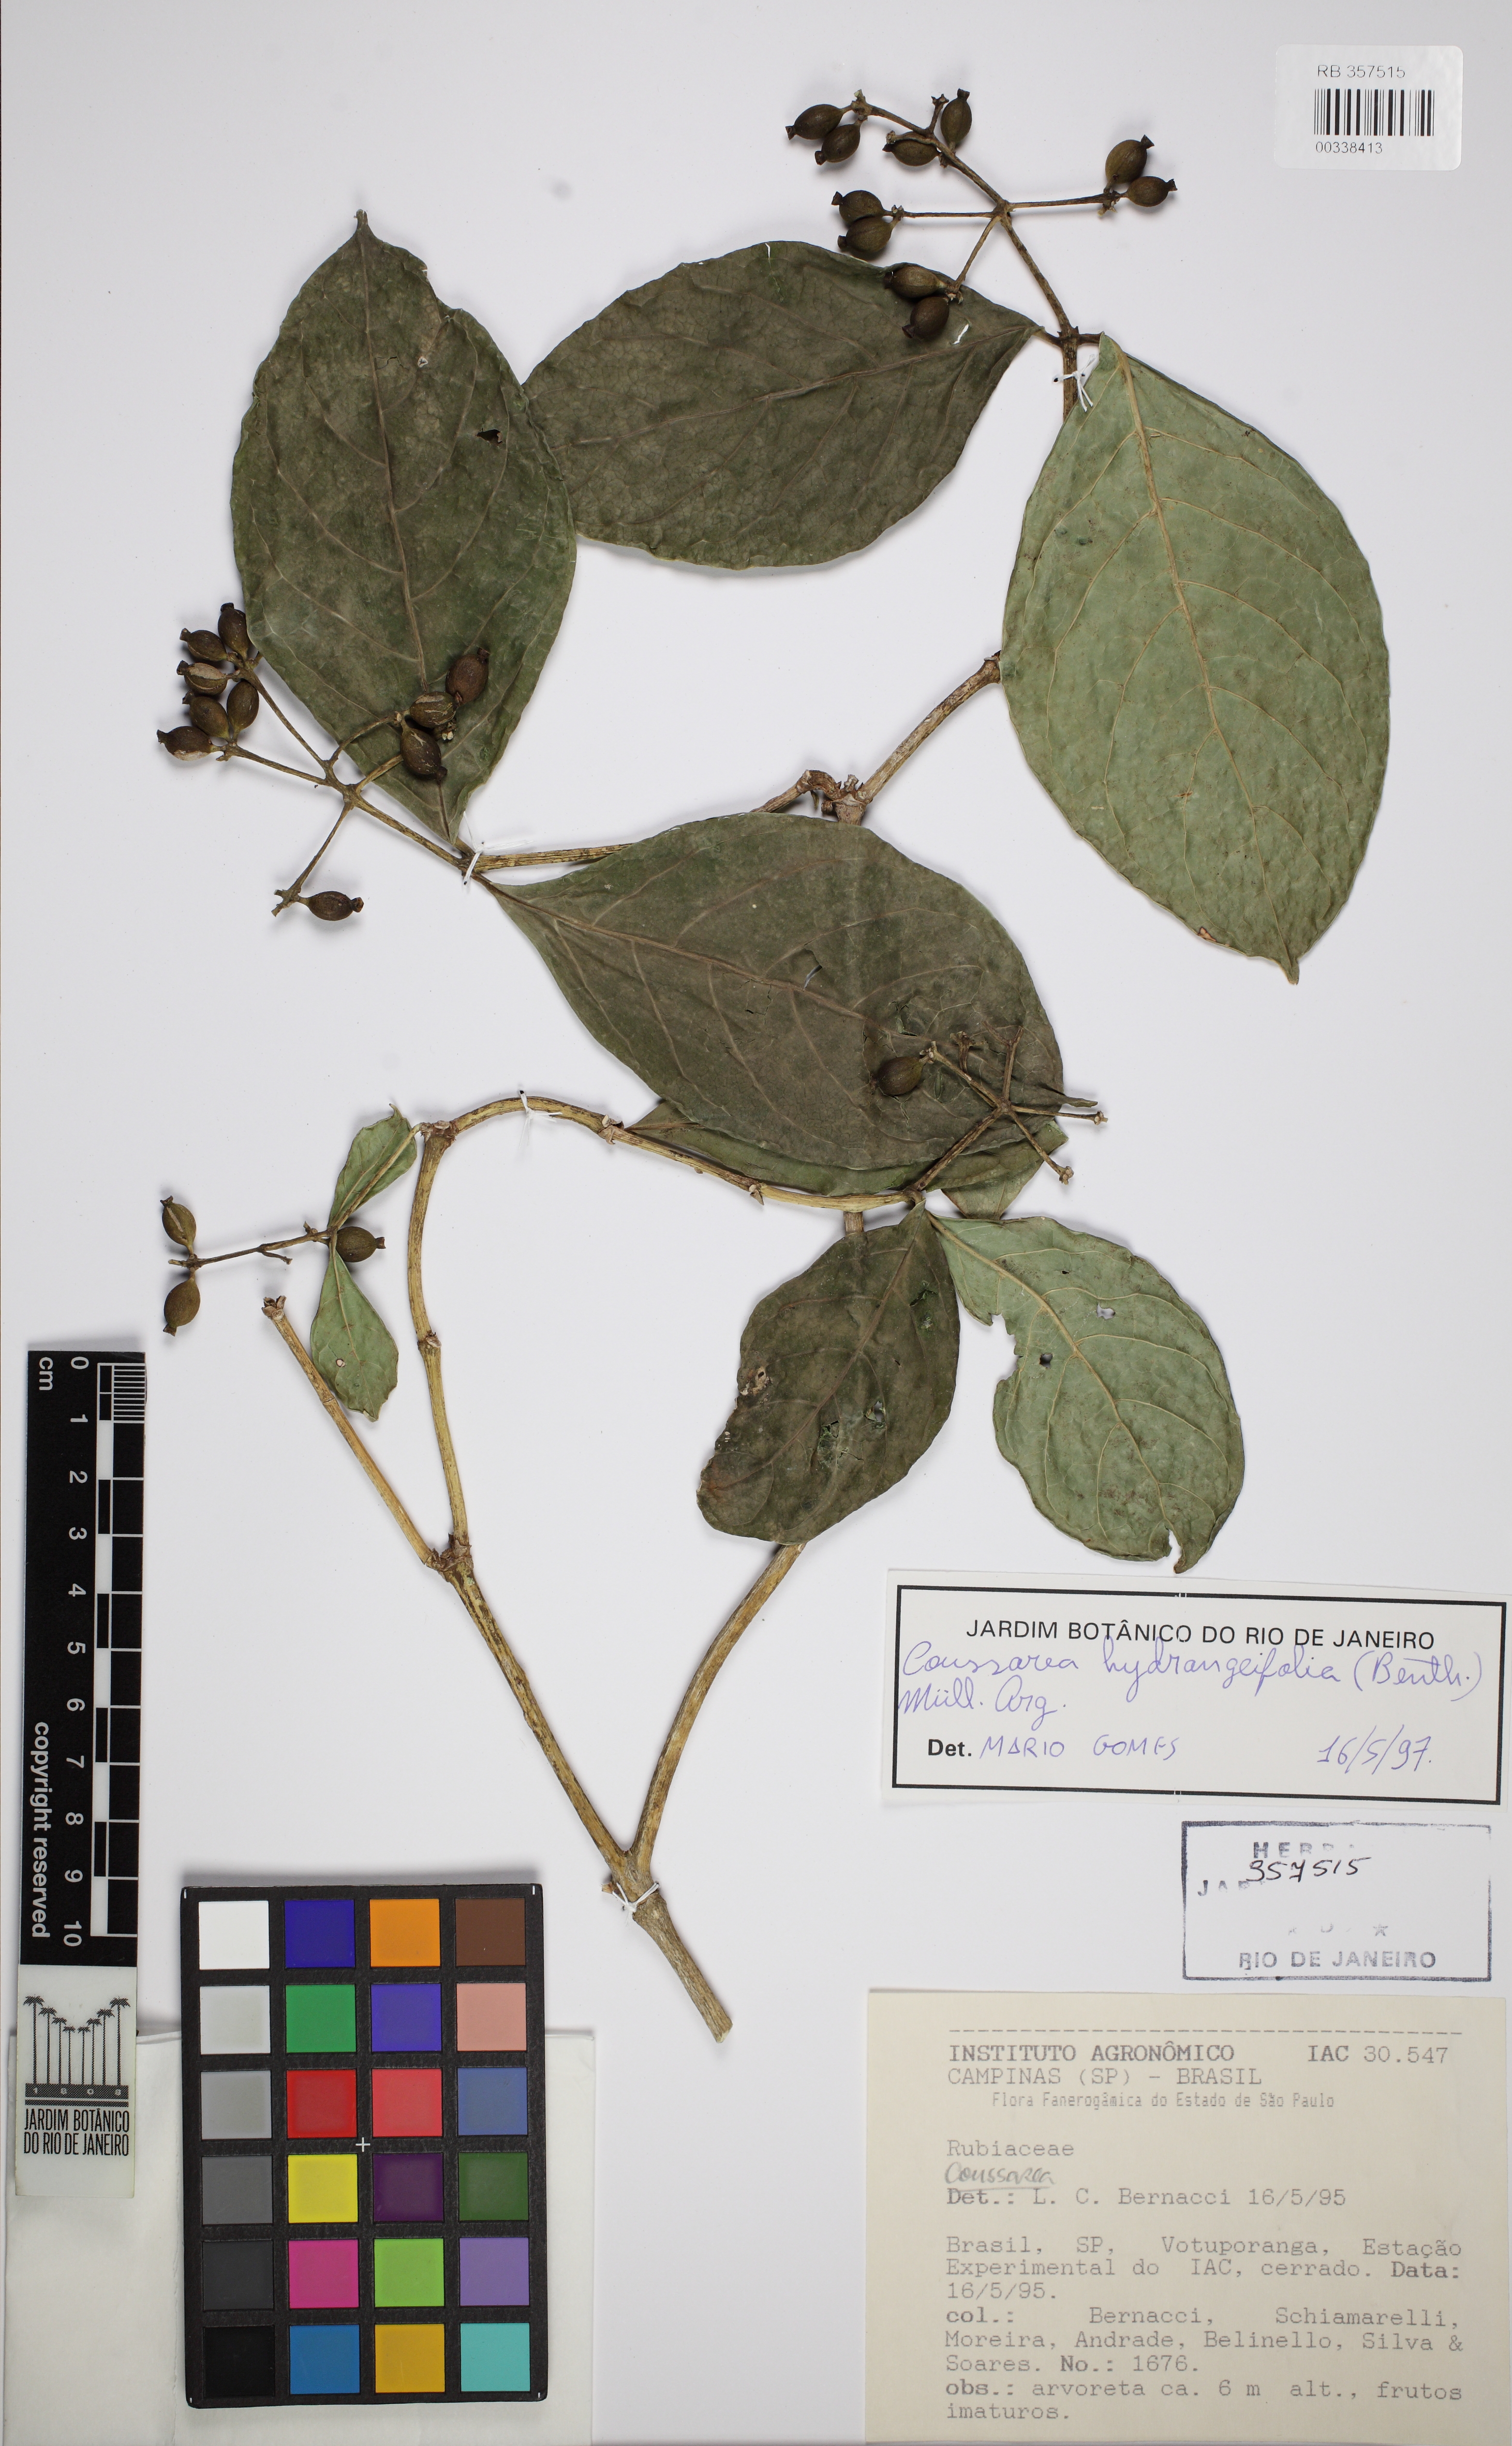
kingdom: Plantae
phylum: Tracheophyta
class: Magnoliopsida
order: Gentianales
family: Rubiaceae
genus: Coussarea
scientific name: Coussarea hydrangeifolia
